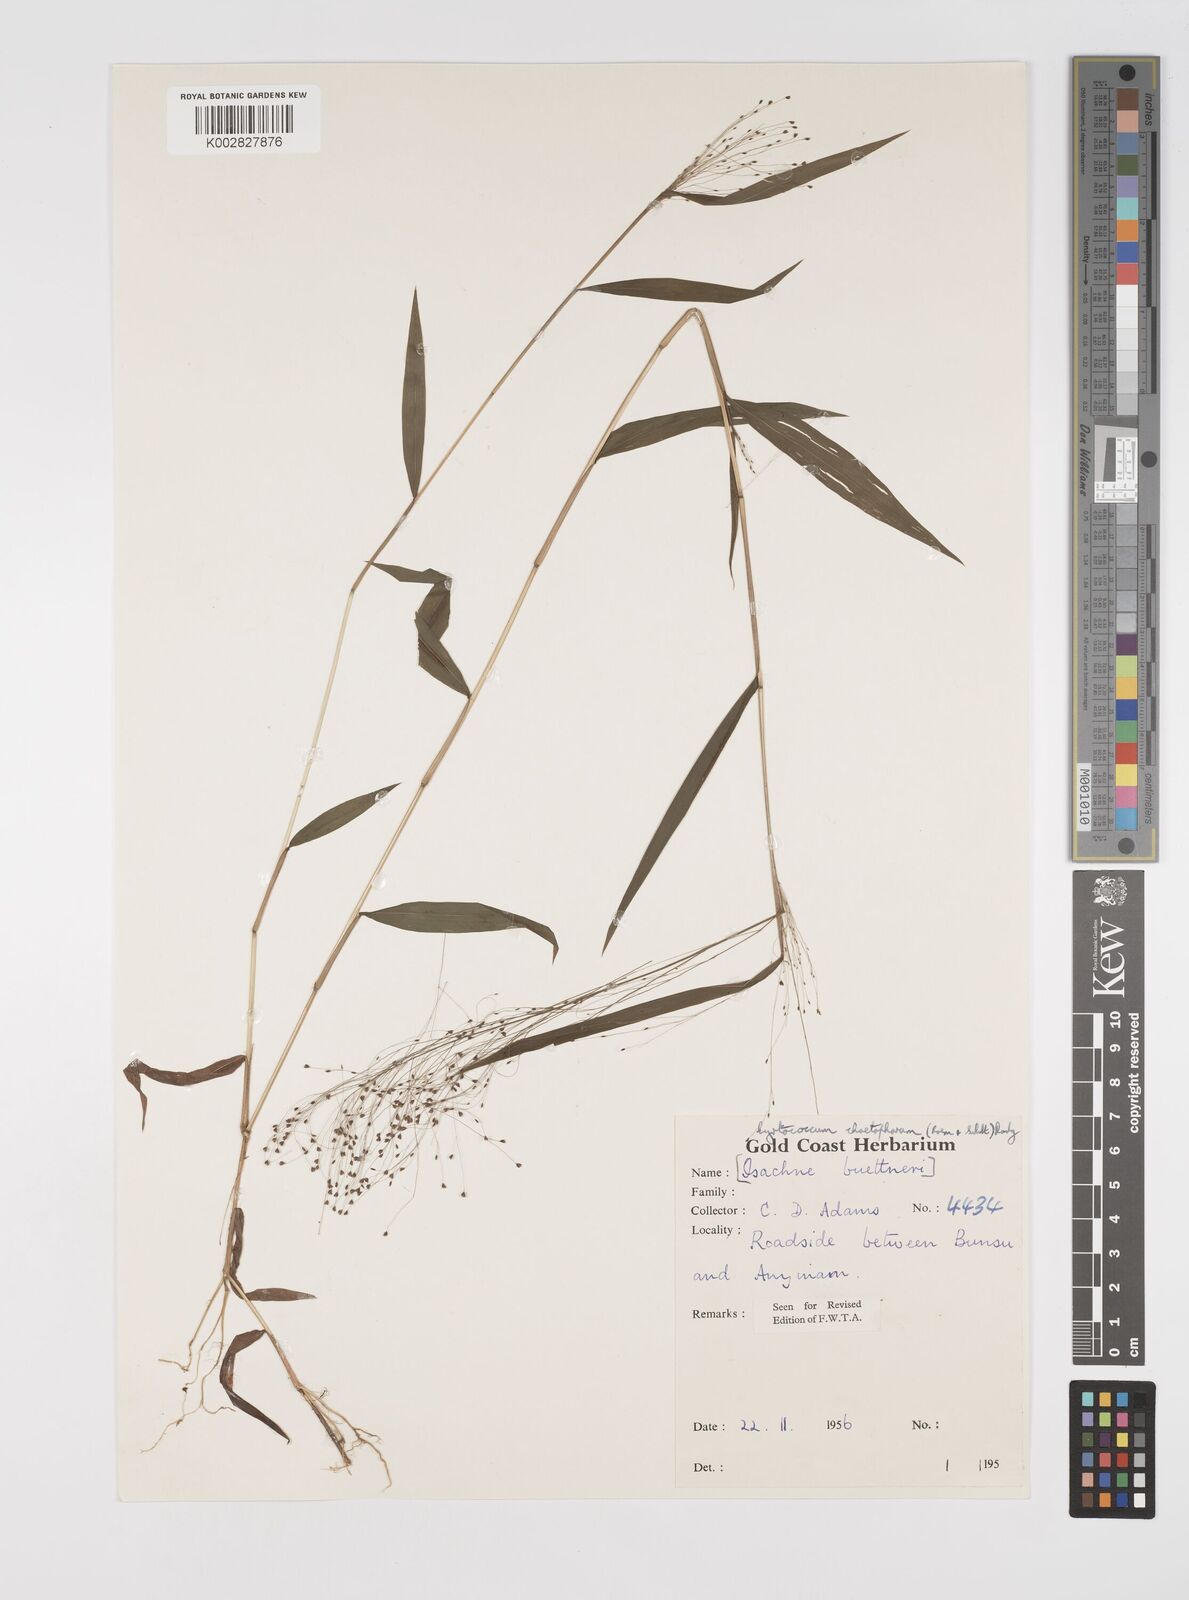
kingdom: Plantae
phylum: Tracheophyta
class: Liliopsida
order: Poales
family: Poaceae
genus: Cyrtococcum
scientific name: Cyrtococcum chaetophoron
